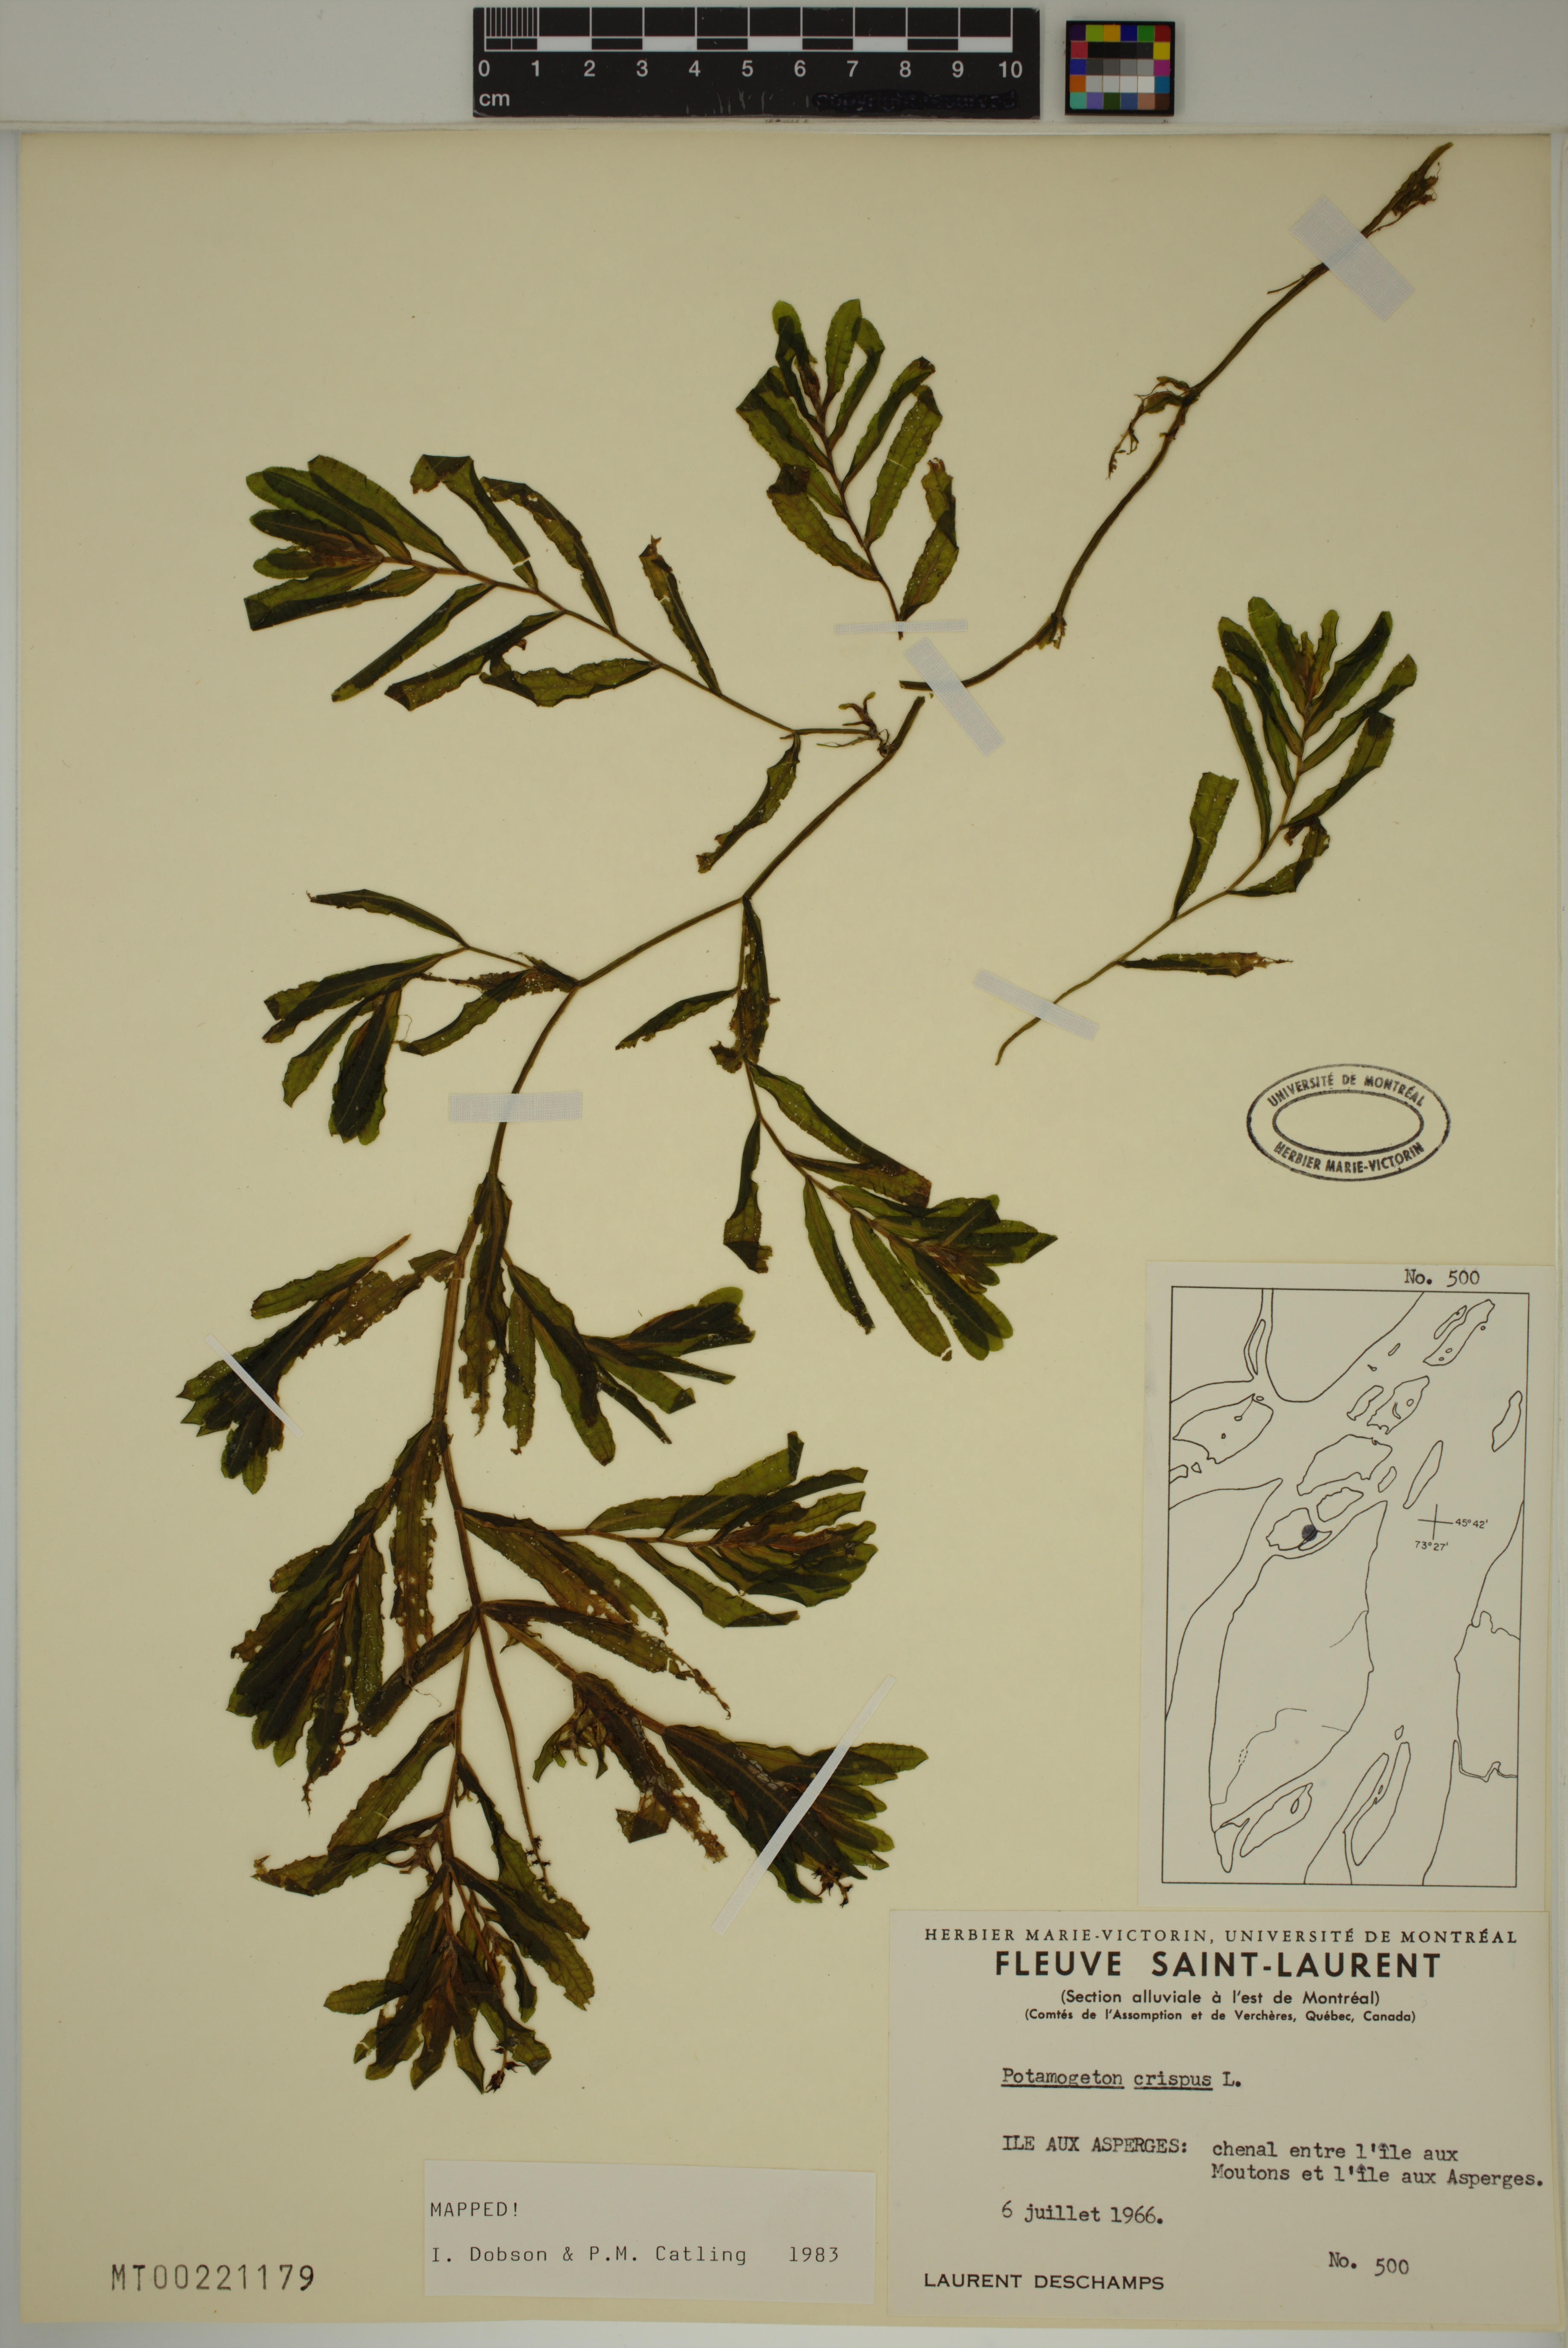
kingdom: Plantae
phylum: Tracheophyta
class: Liliopsida
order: Alismatales
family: Potamogetonaceae
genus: Potamogeton
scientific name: Potamogeton crispus
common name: Curled pondweed
